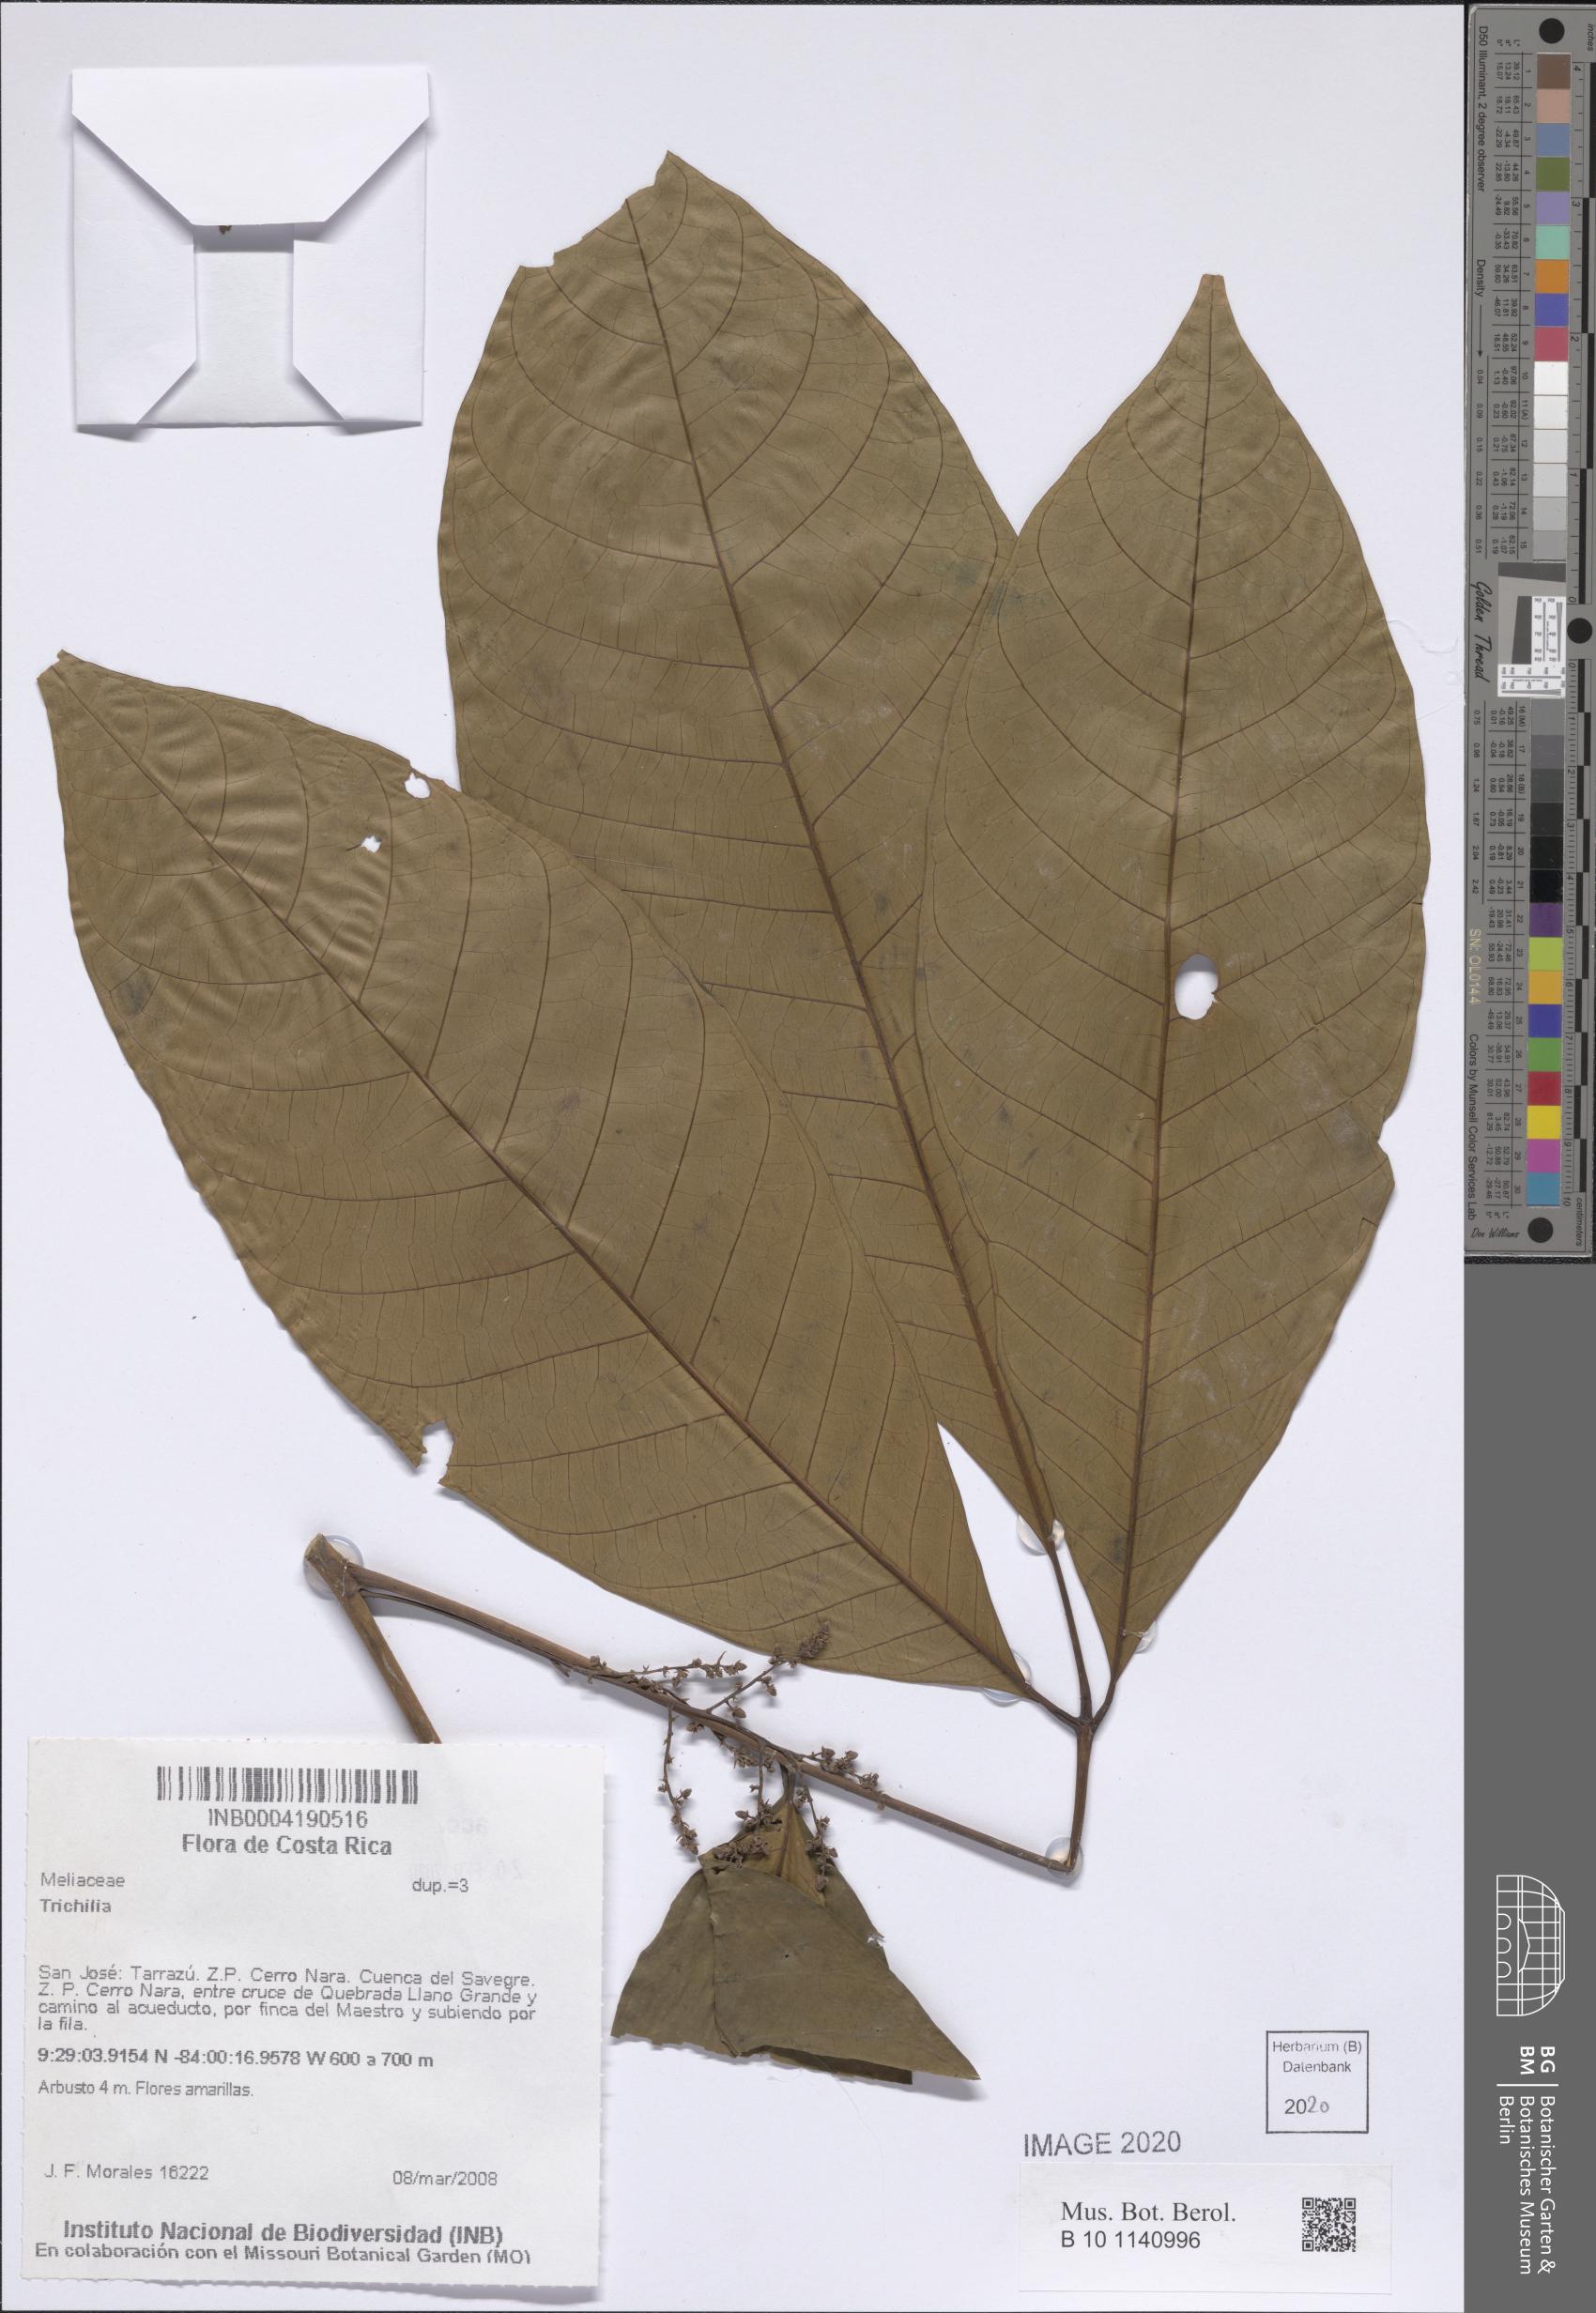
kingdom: Plantae
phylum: Tracheophyta
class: Magnoliopsida
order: Sapindales
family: Meliaceae
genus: Trichilia
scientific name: Trichilia
